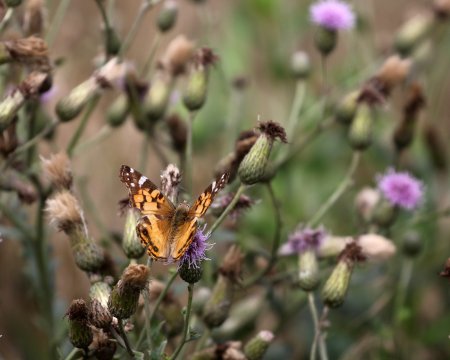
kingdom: Animalia
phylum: Arthropoda
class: Insecta
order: Lepidoptera
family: Nymphalidae
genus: Vanessa
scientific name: Vanessa virginiensis
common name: American Lady
